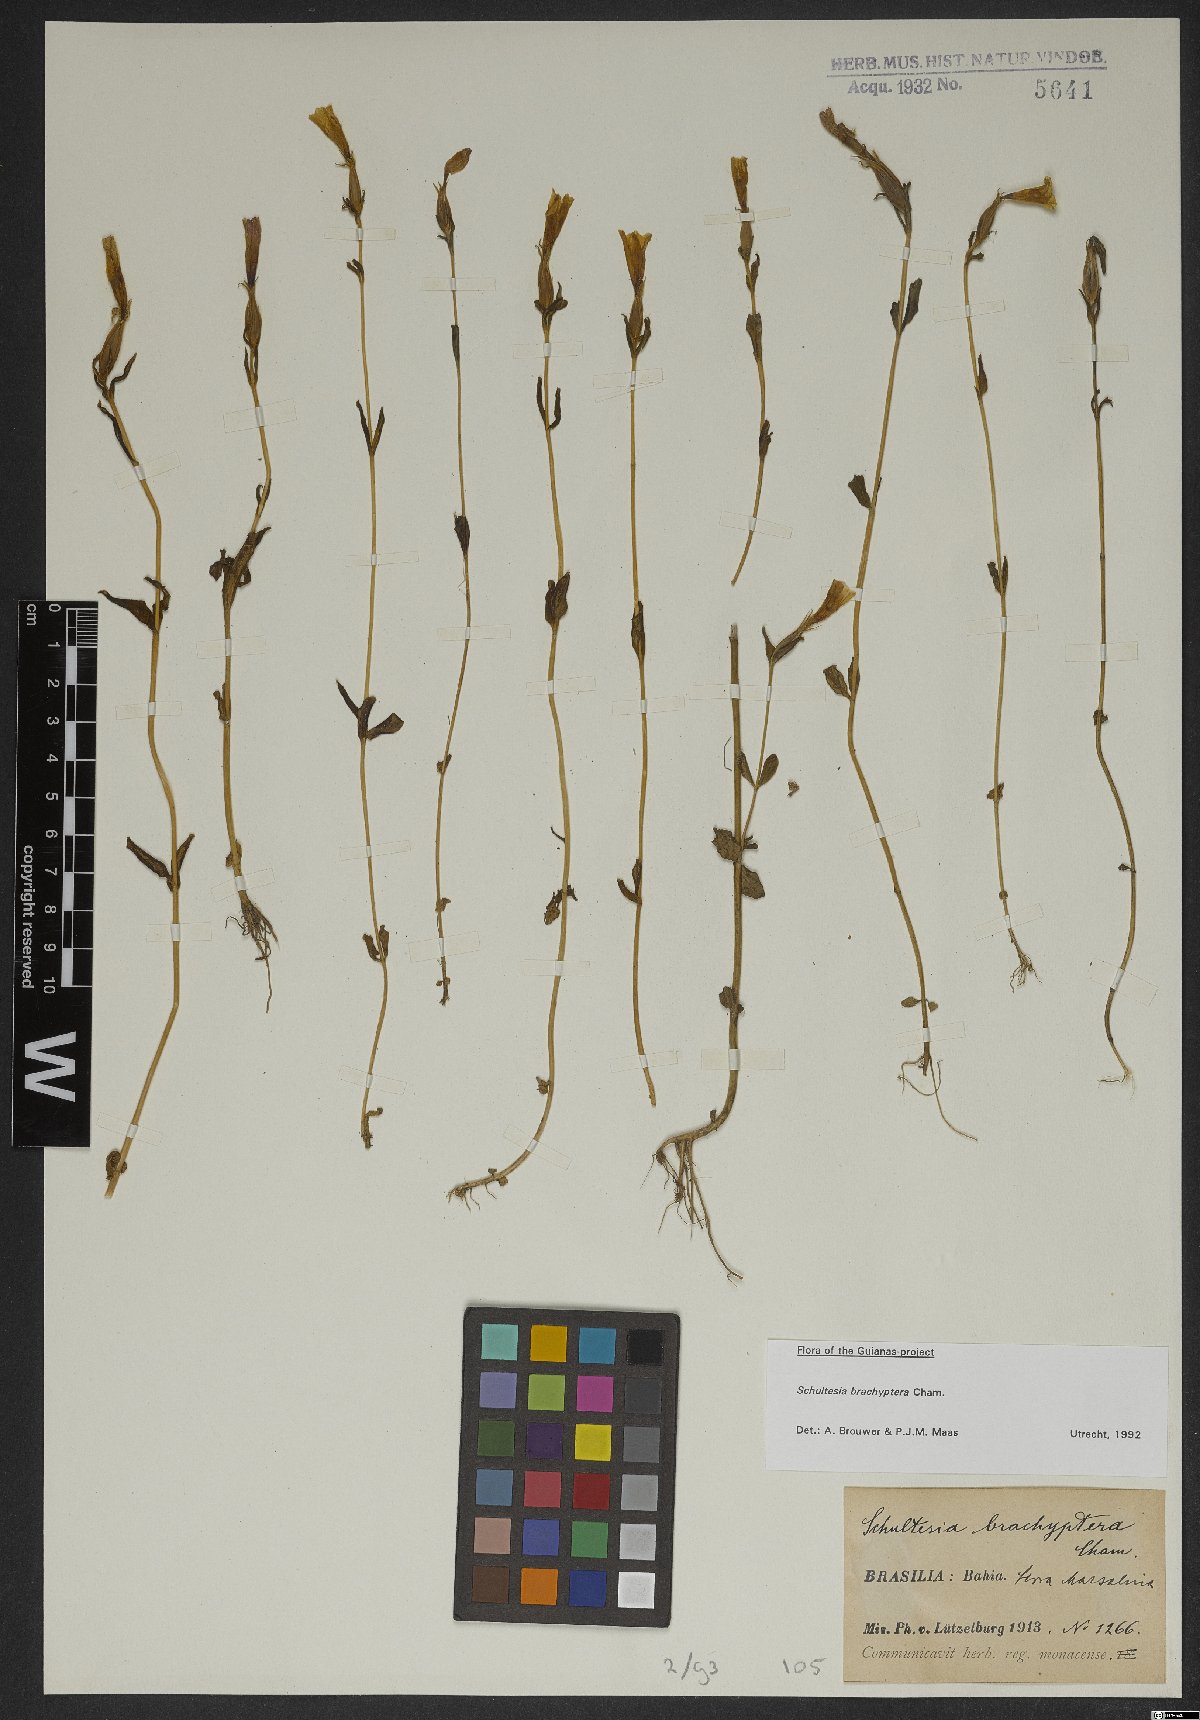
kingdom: Plantae
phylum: Tracheophyta
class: Magnoliopsida
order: Gentianales
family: Gentianaceae
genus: Schultesia
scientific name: Schultesia brachyptera
